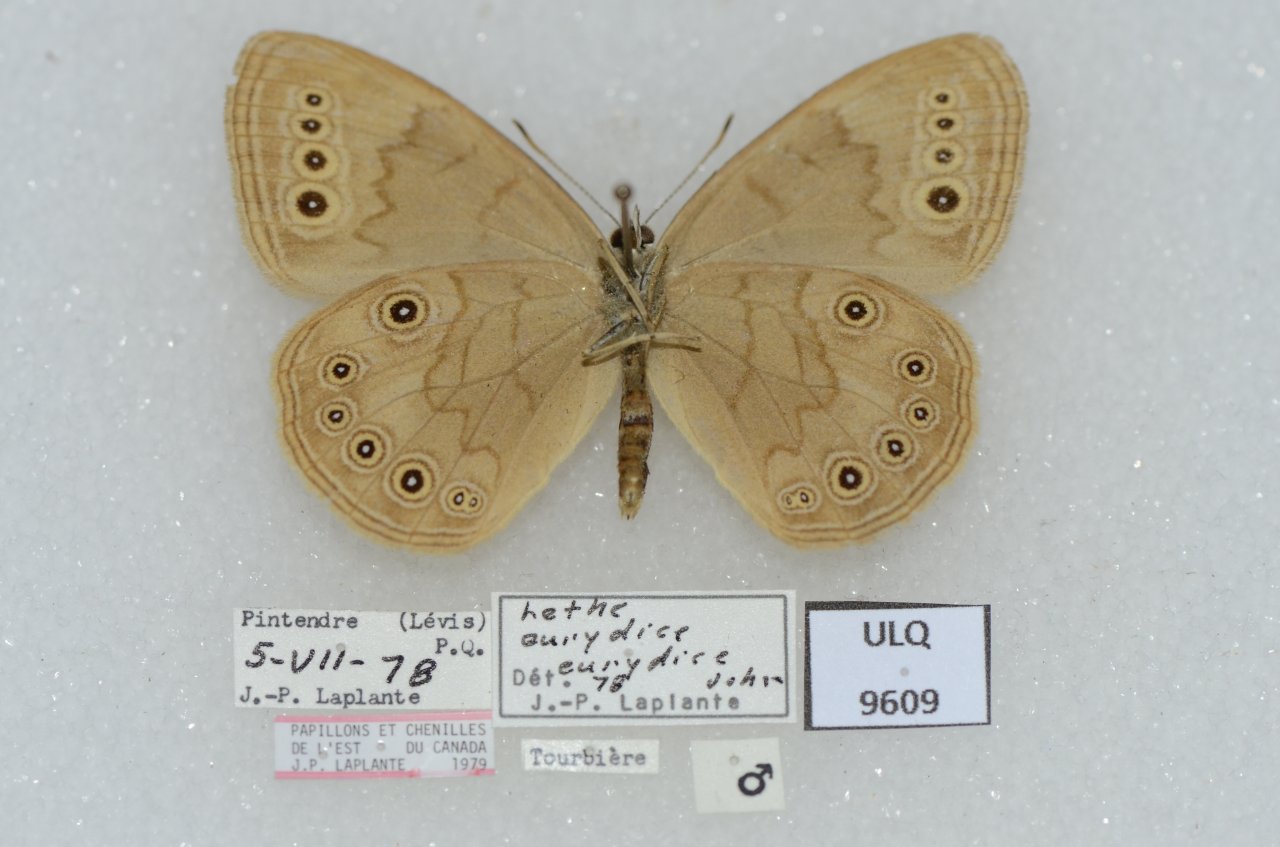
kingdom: Animalia
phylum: Arthropoda
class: Insecta
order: Lepidoptera
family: Nymphalidae
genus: Lethe
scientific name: Lethe eurydice
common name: Eyed Brown
